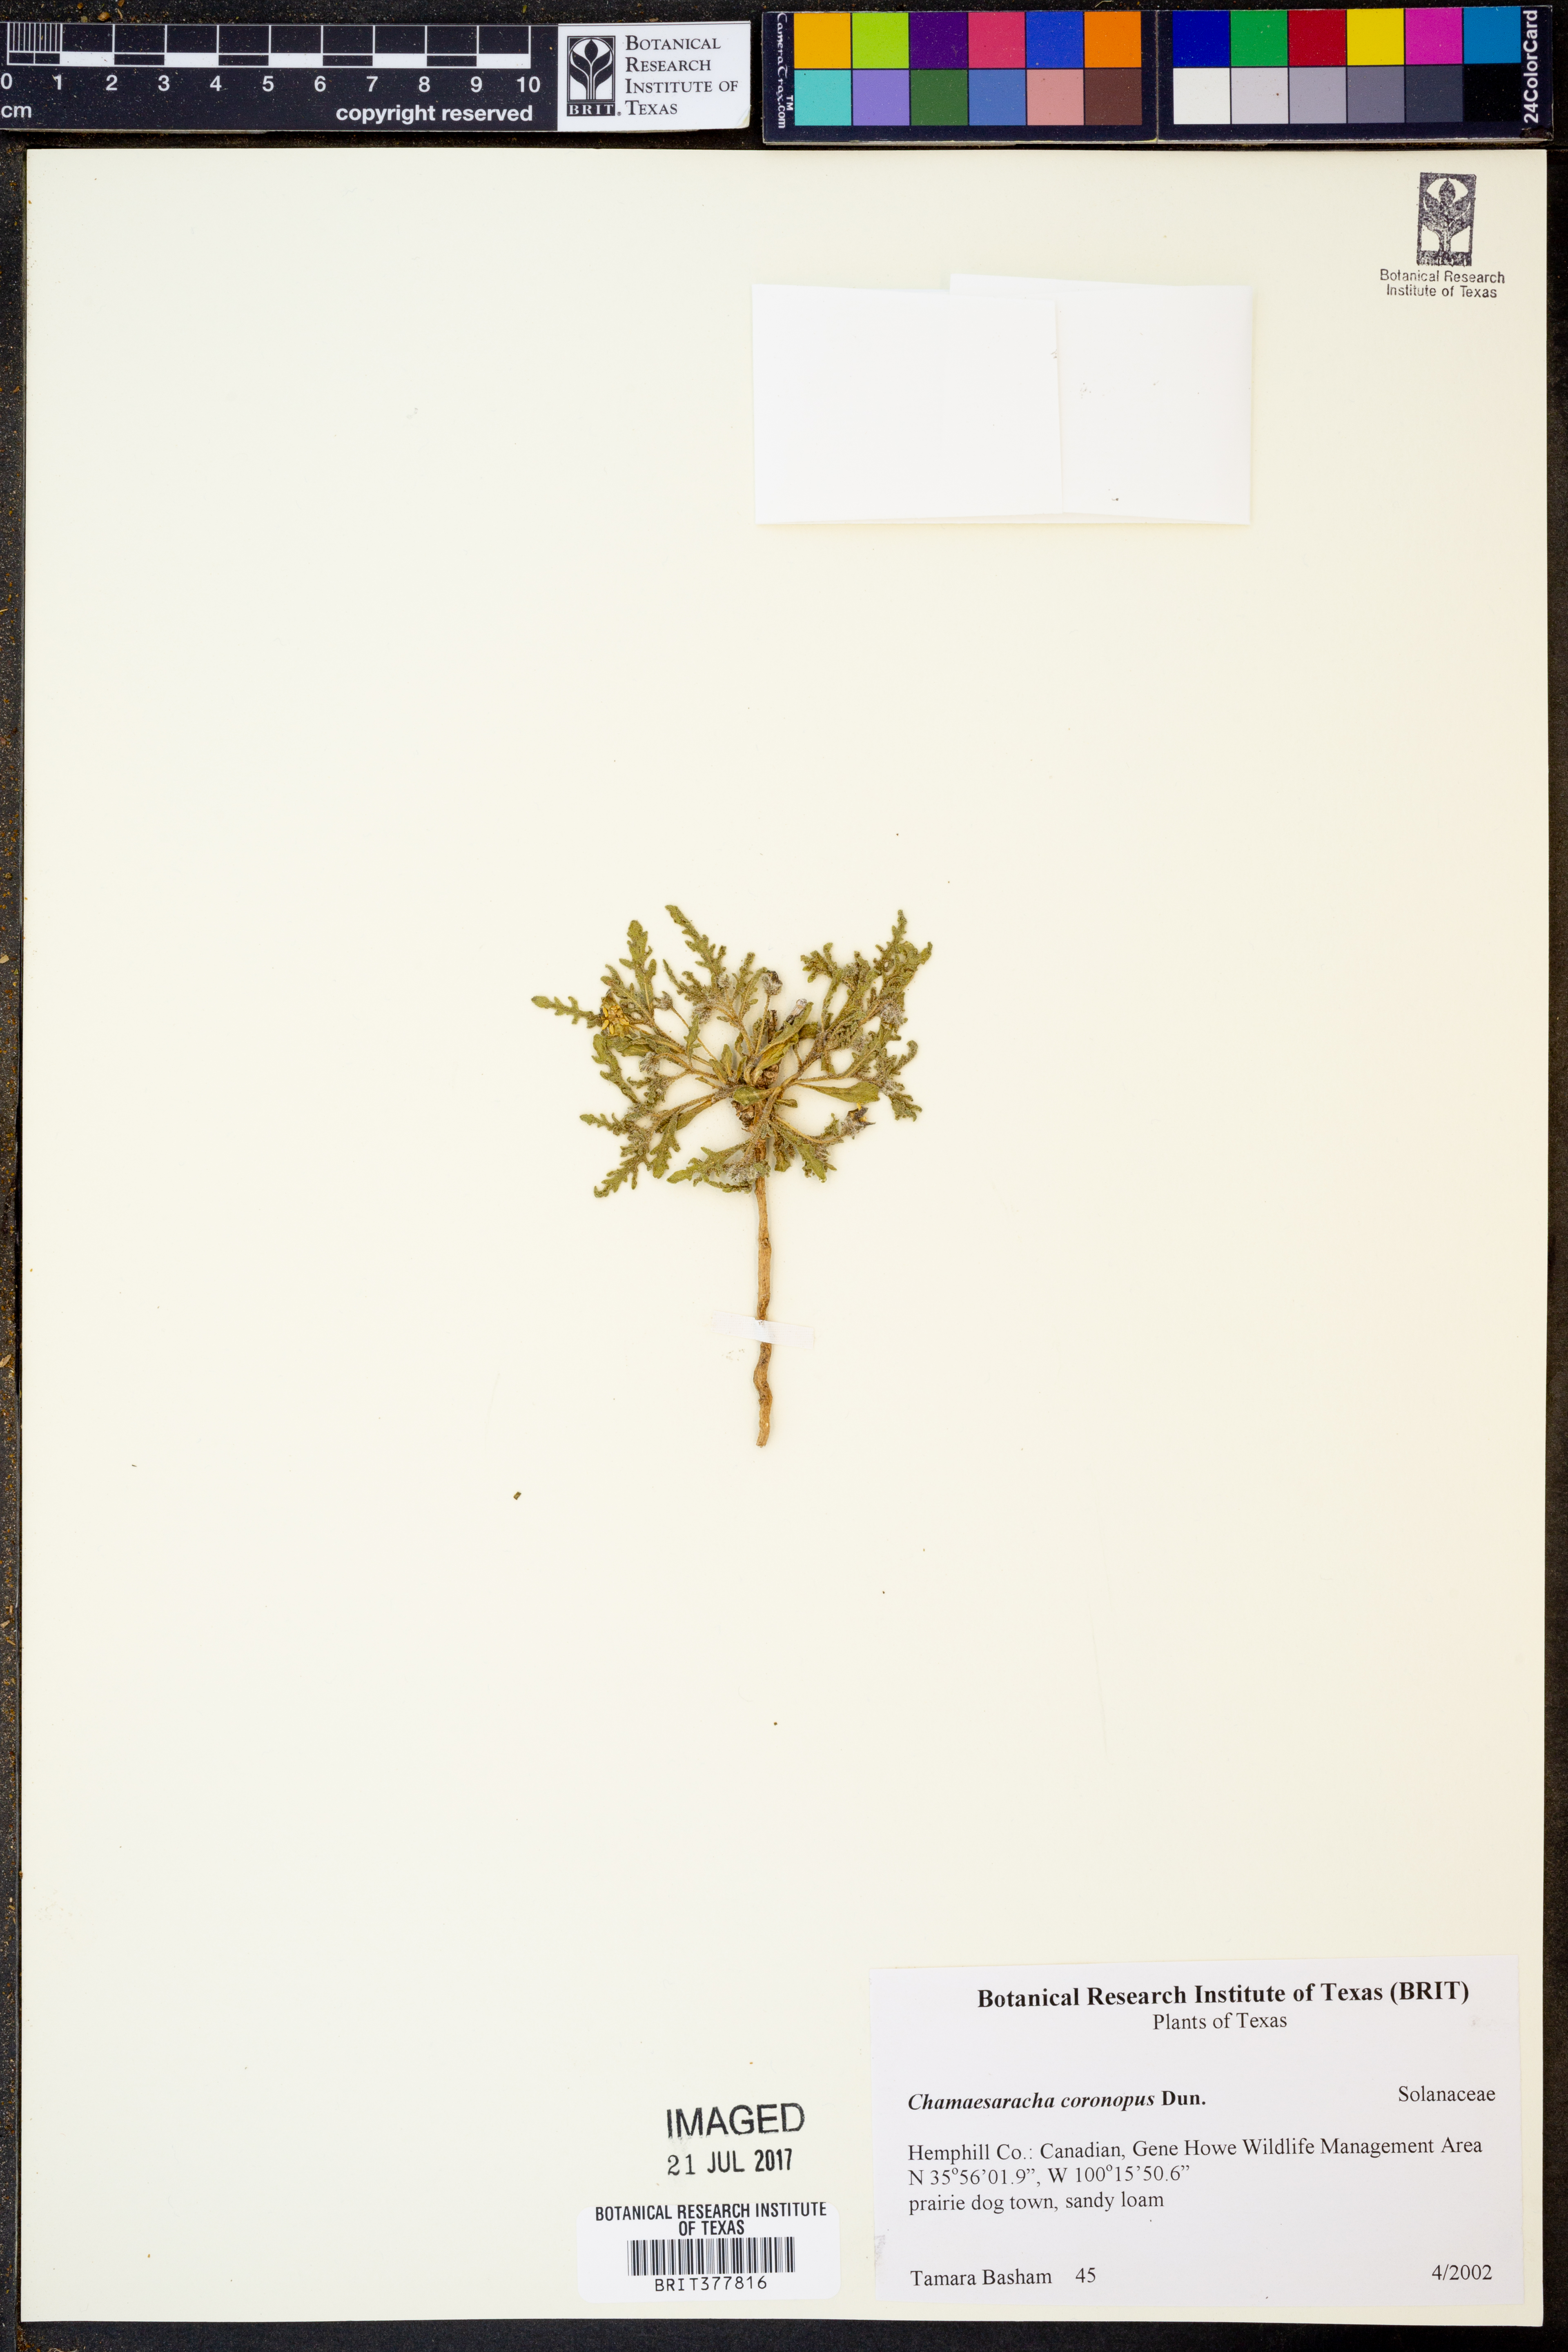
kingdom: Plantae
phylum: Tracheophyta
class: Magnoliopsida
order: Solanales
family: Solanaceae
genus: Chamaesaracha
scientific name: Chamaesaracha coronopus
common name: Smooth chamaesaracha
